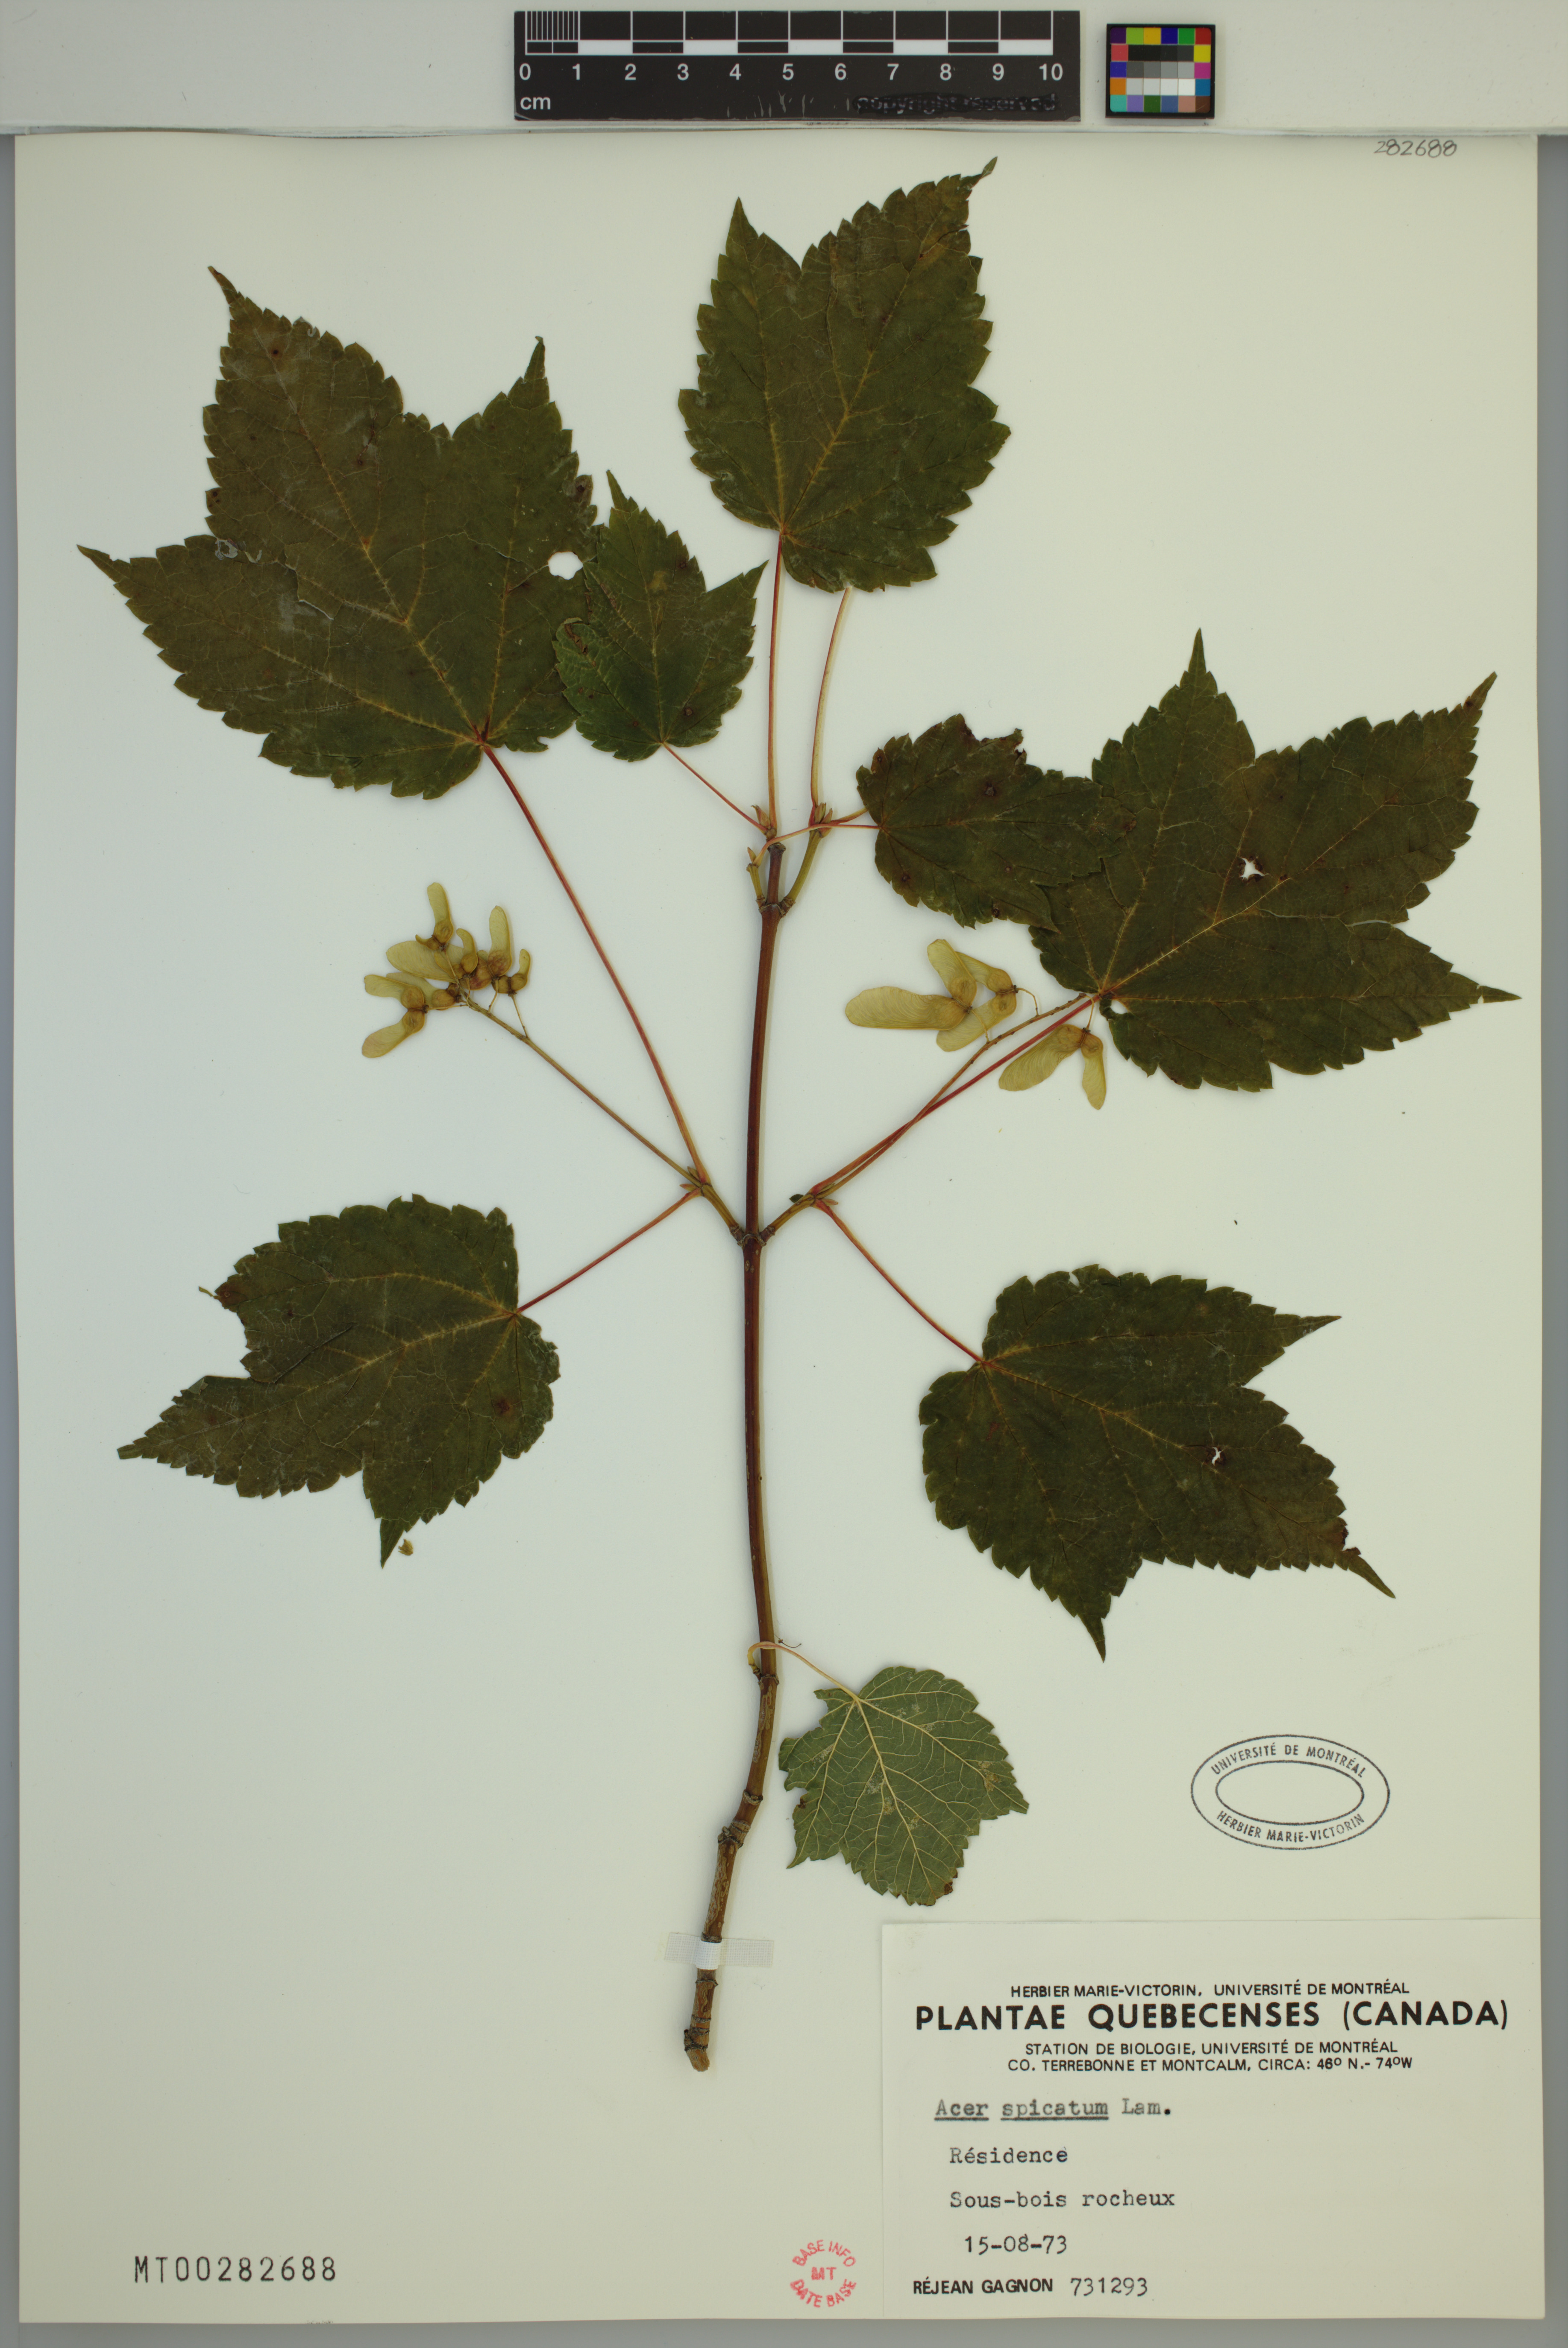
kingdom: Plantae
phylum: Tracheophyta
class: Magnoliopsida
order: Sapindales
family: Sapindaceae
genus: Acer
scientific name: Acer spicatum
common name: Mountain maple
